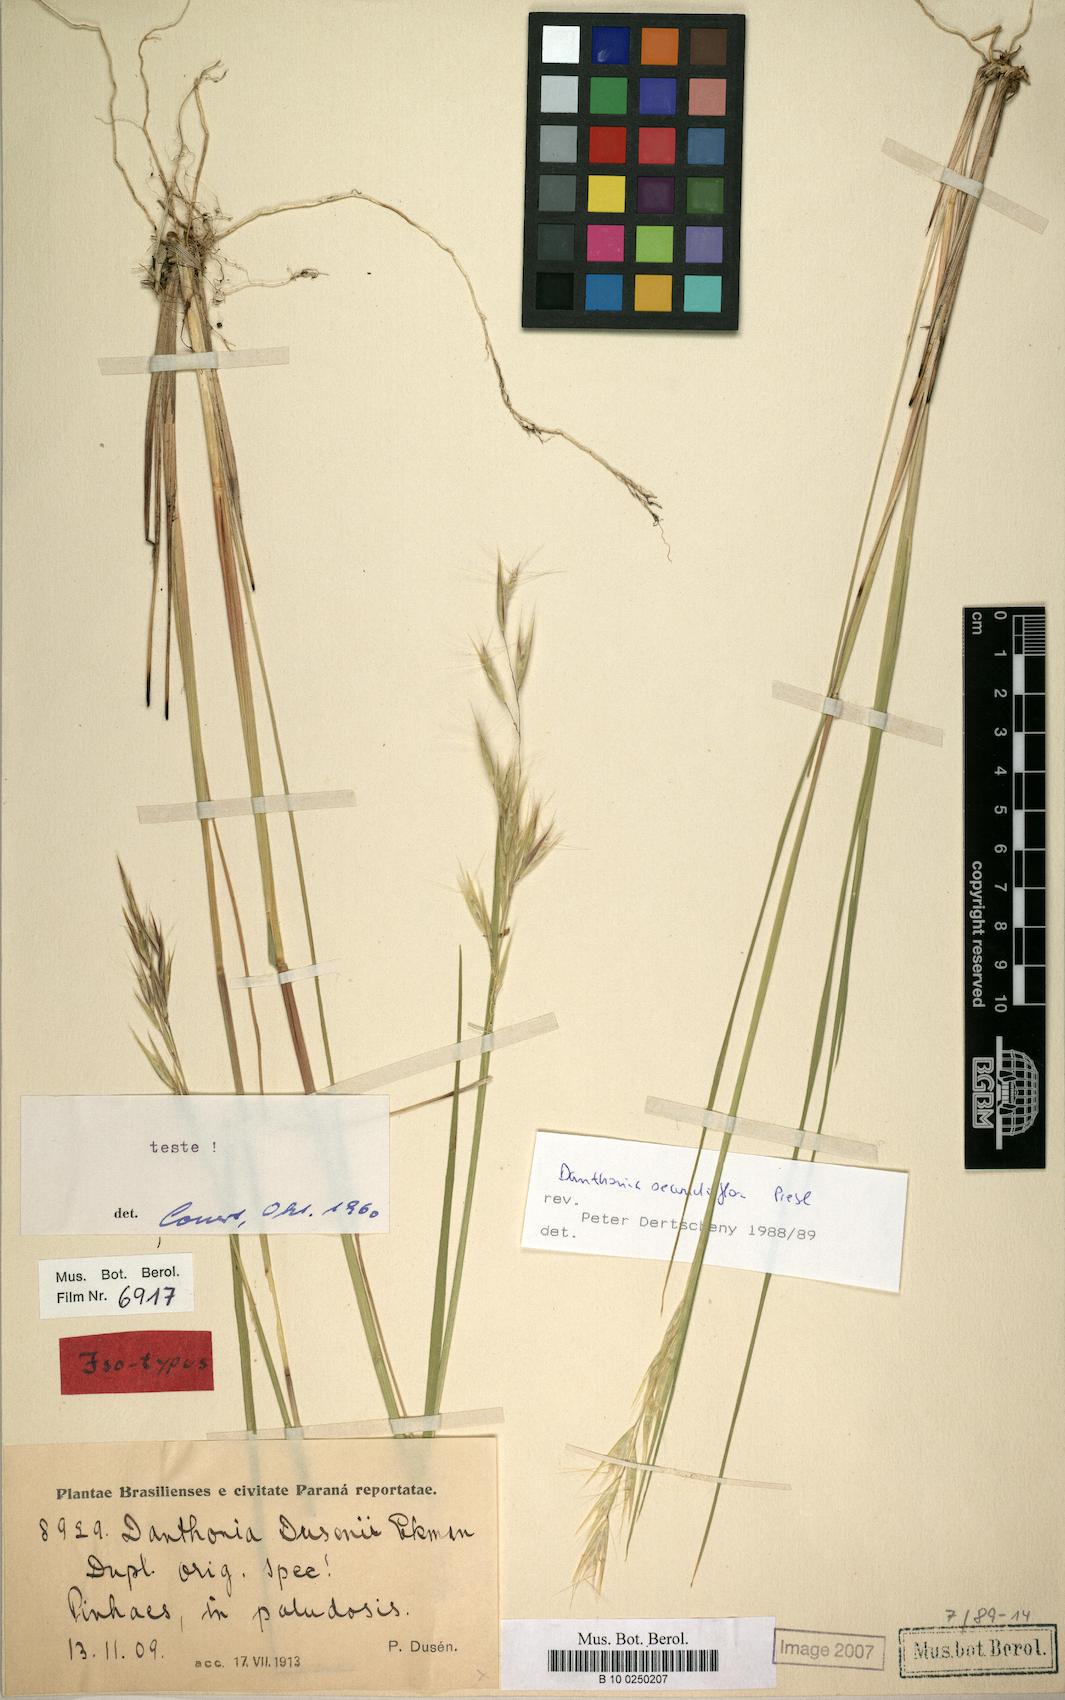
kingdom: Plantae
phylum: Tracheophyta
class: Liliopsida
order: Poales
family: Poaceae
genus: Danthonia
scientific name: Danthonia secundiflora
